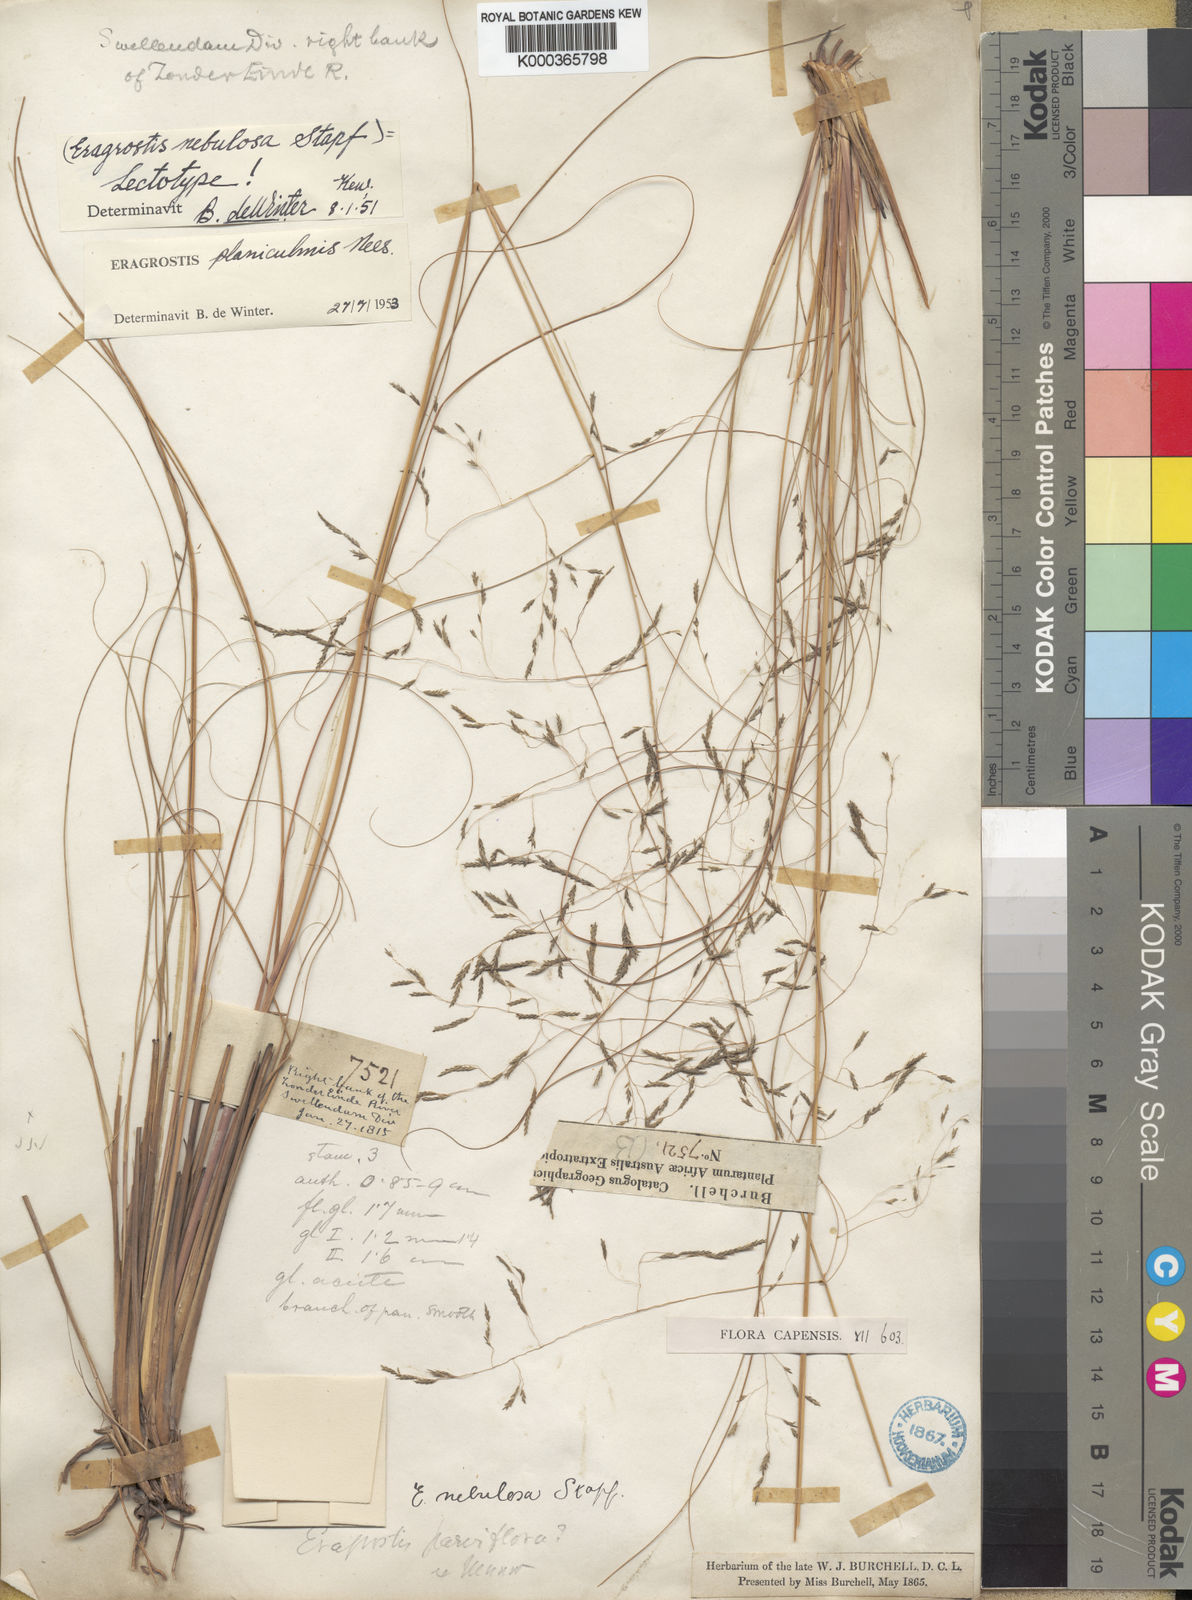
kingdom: Plantae
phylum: Tracheophyta
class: Liliopsida
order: Poales
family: Poaceae
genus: Eragrostis
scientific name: Eragrostis planiculmis
